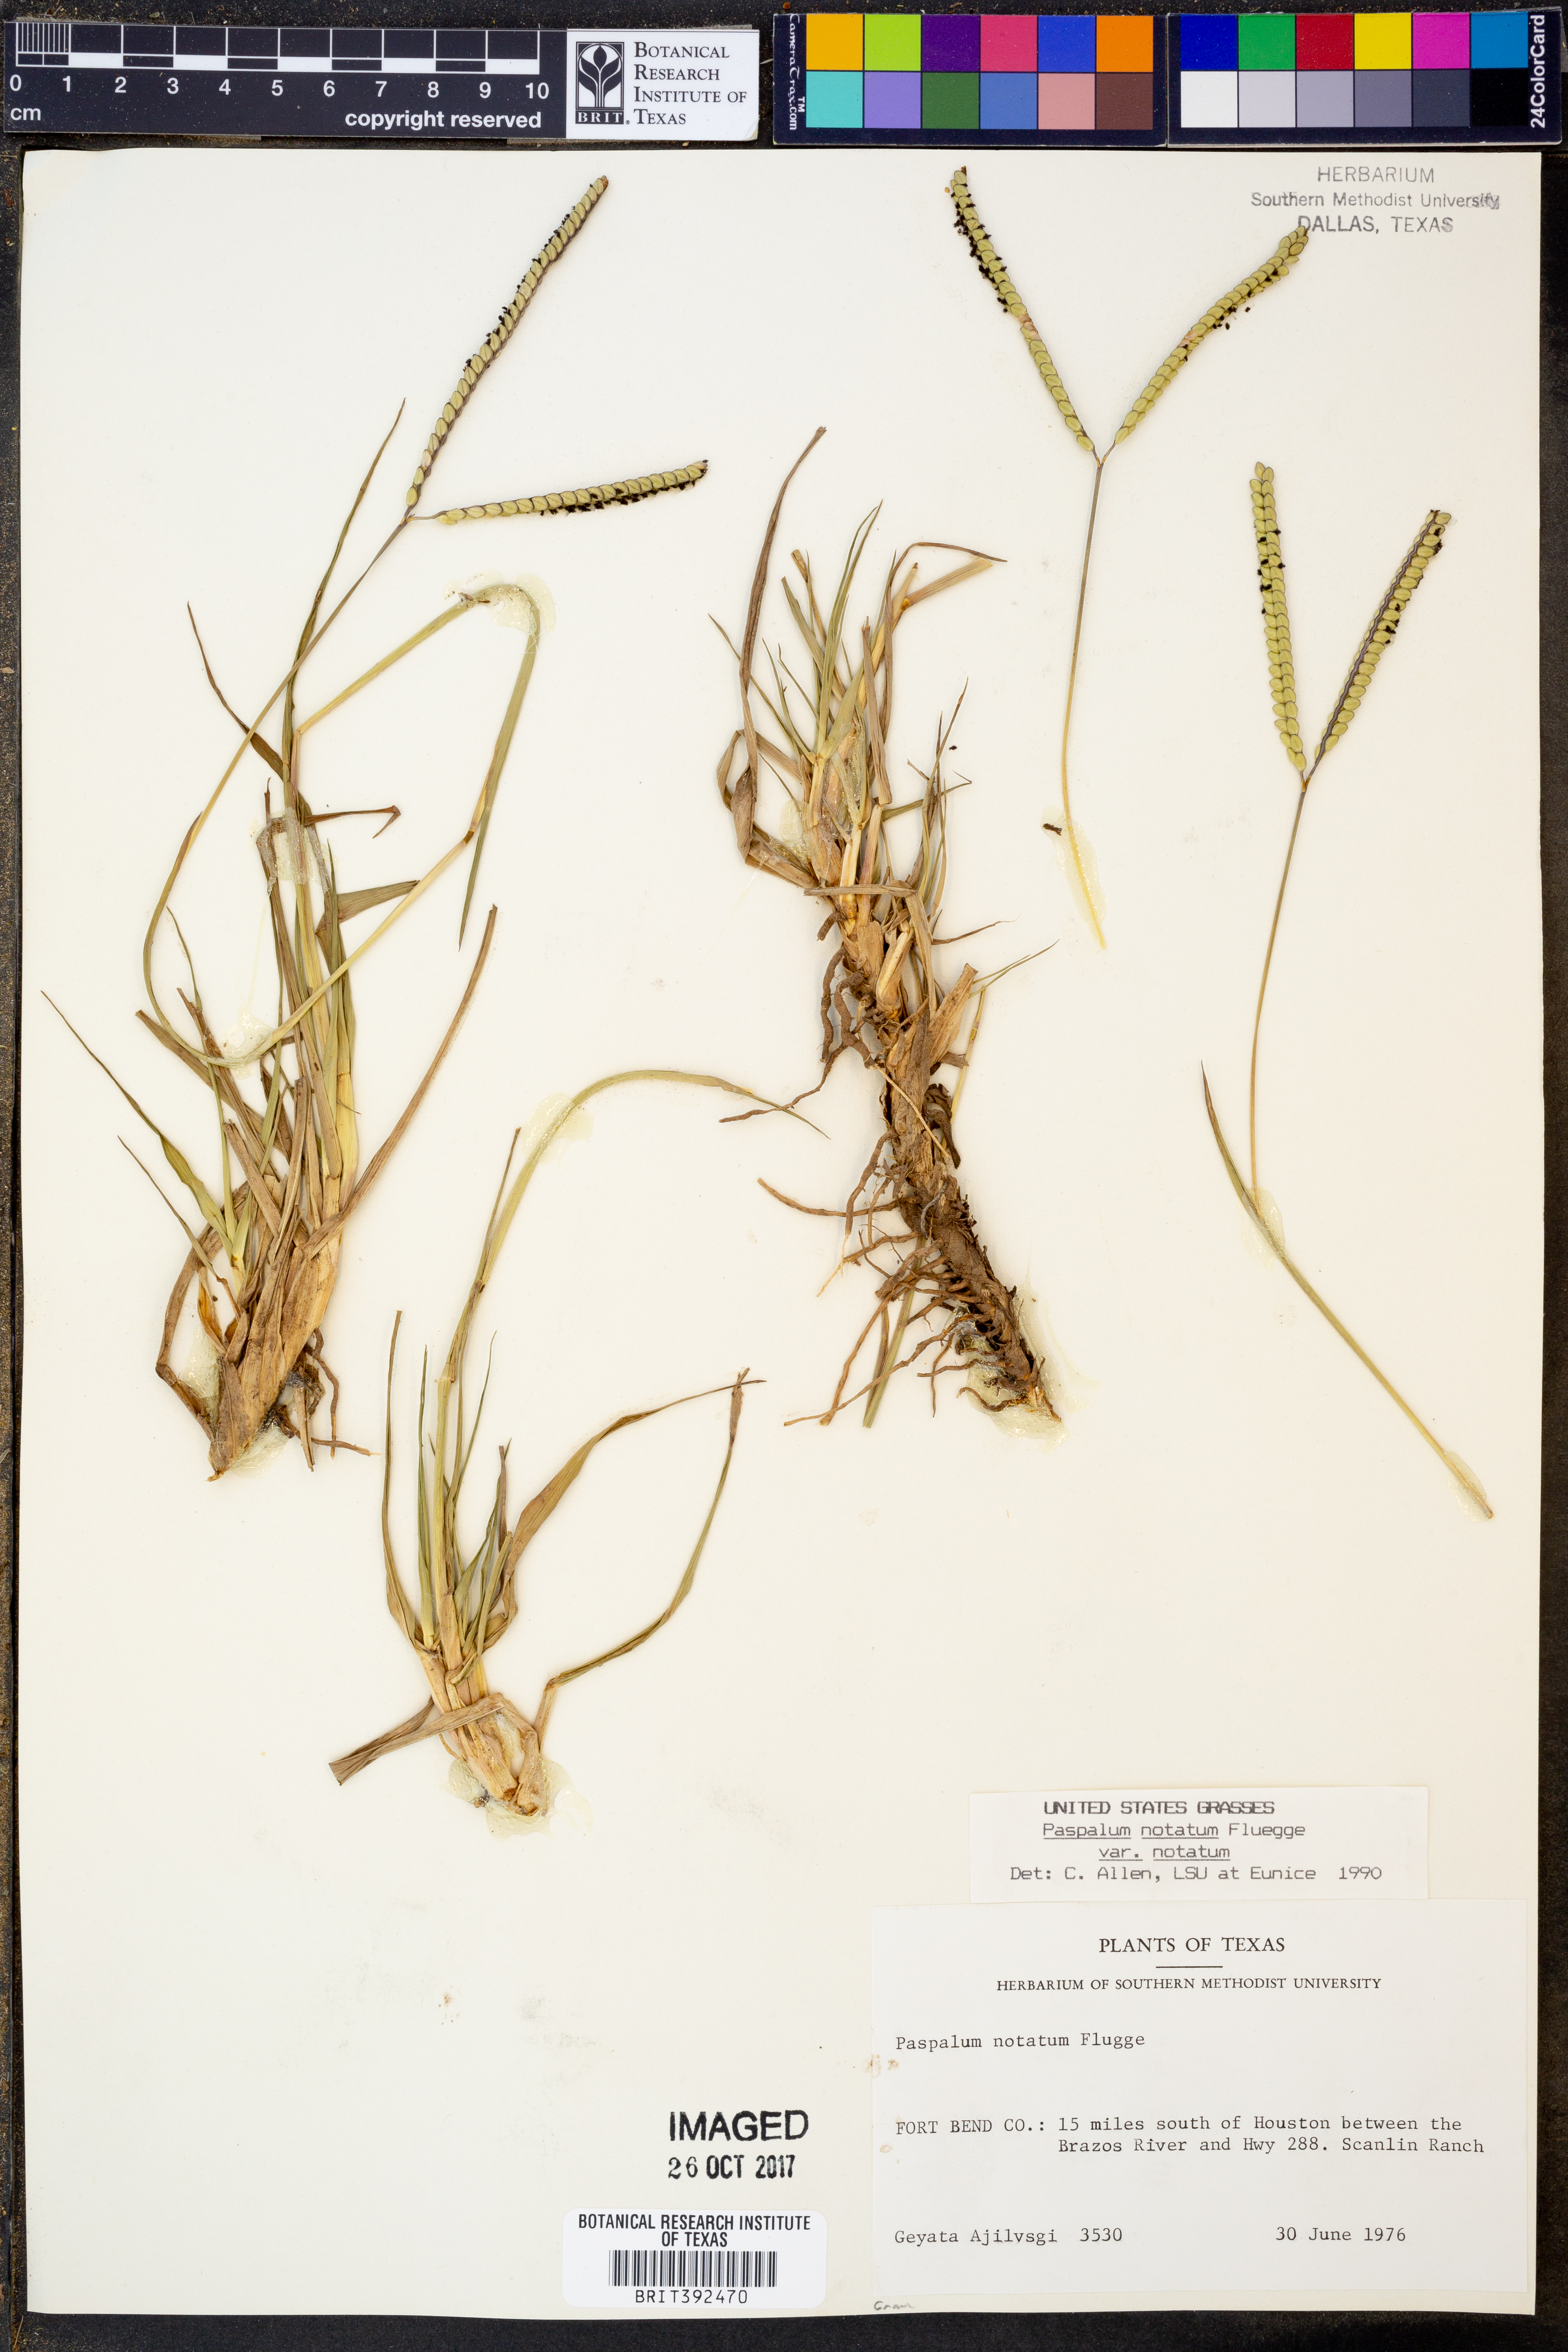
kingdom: Plantae
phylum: Tracheophyta
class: Liliopsida
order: Poales
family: Poaceae
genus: Paspalum
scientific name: Paspalum notatum
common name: Bahiagrass
